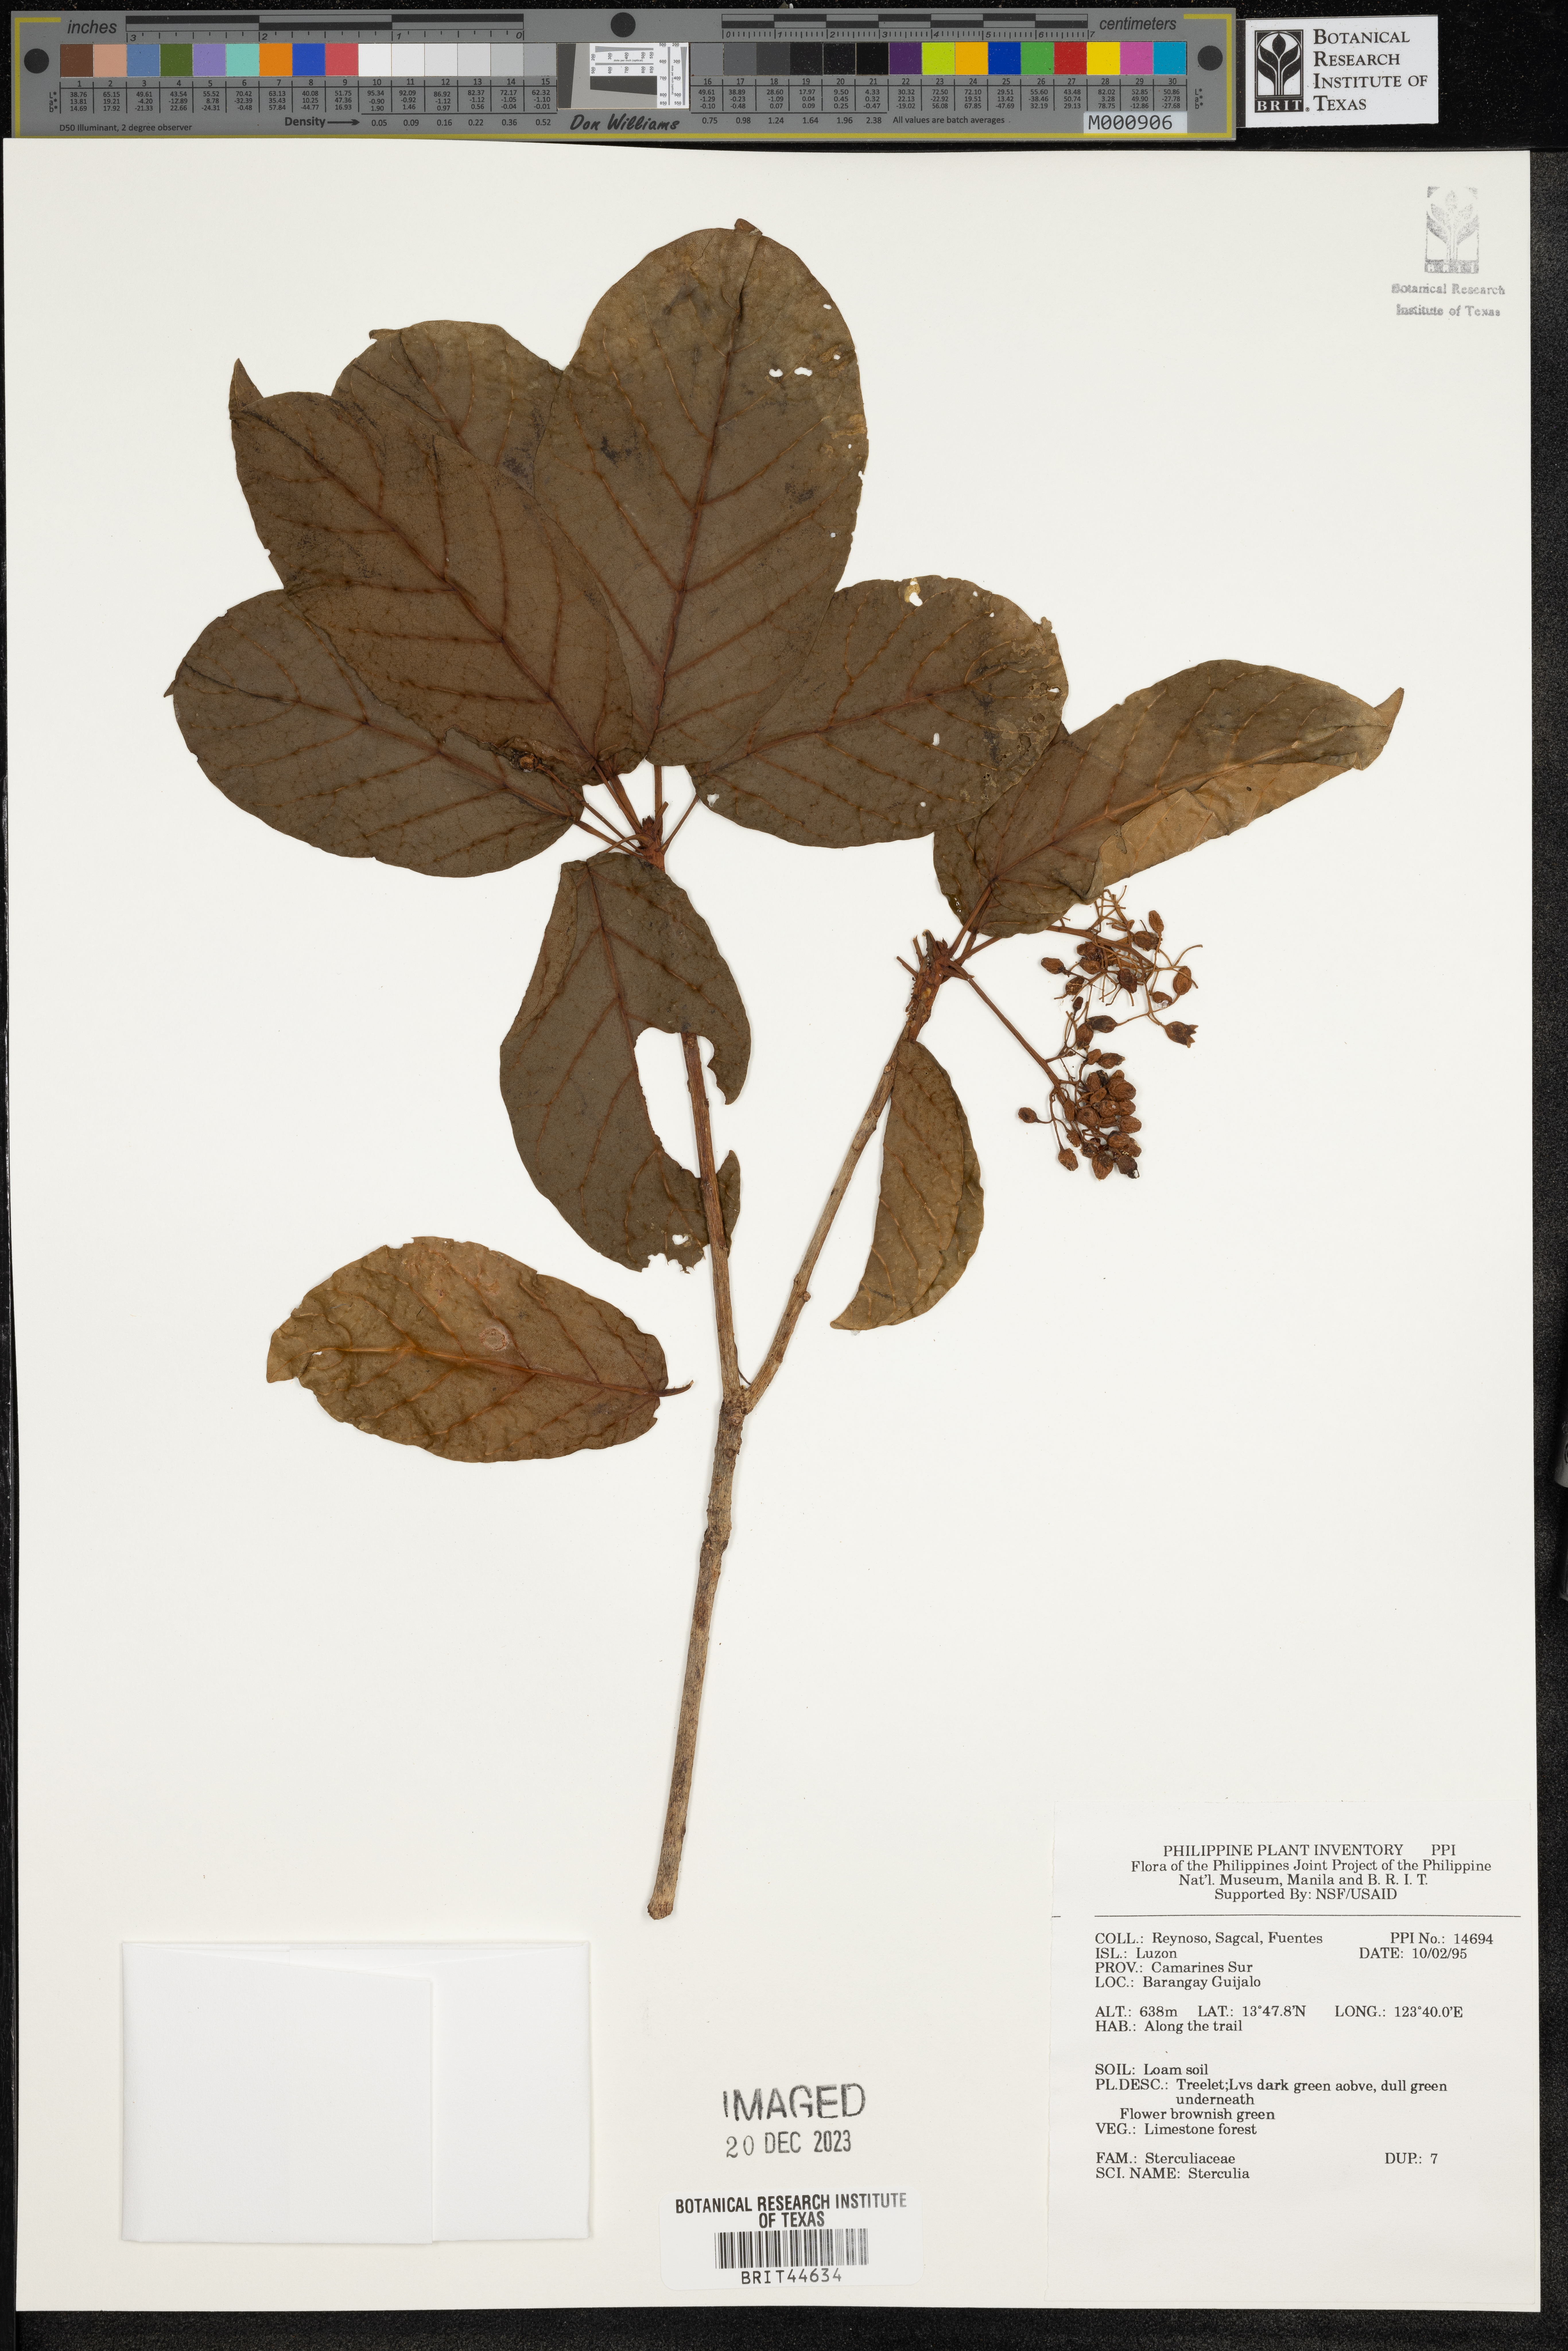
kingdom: Plantae
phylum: Tracheophyta
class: Magnoliopsida
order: Malvales
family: Malvaceae
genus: Sterculia
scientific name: Sterculia
